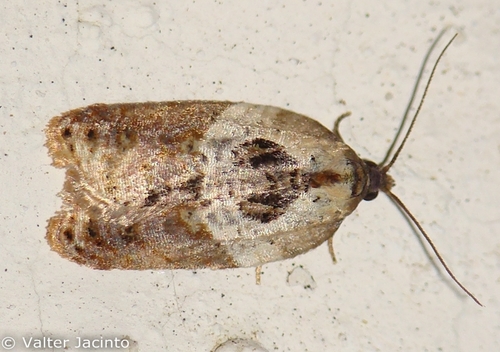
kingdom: Animalia
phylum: Arthropoda
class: Insecta
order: Lepidoptera
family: Tortricidae
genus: Acleris
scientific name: Acleris variegana
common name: Garden rose tortrix
